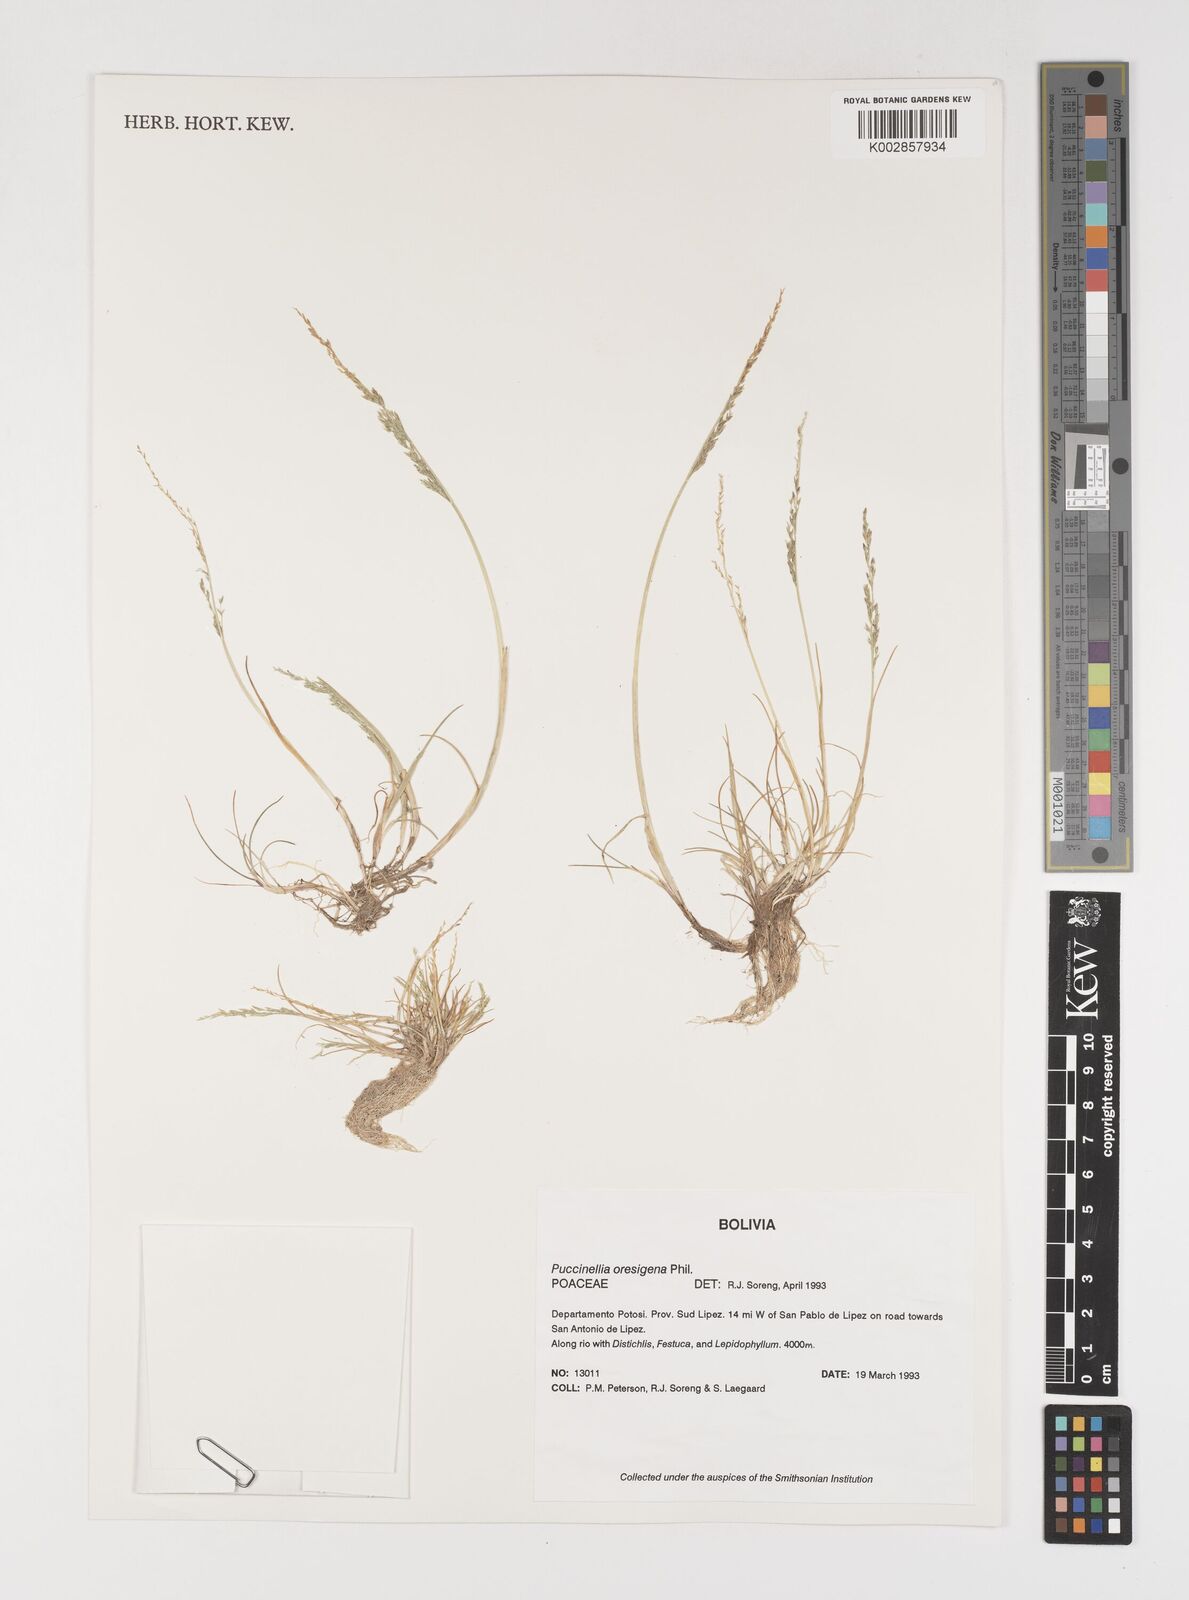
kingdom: Plantae
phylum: Tracheophyta
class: Liliopsida
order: Poales
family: Poaceae
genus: Puccinellia
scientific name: Puccinellia frigida
